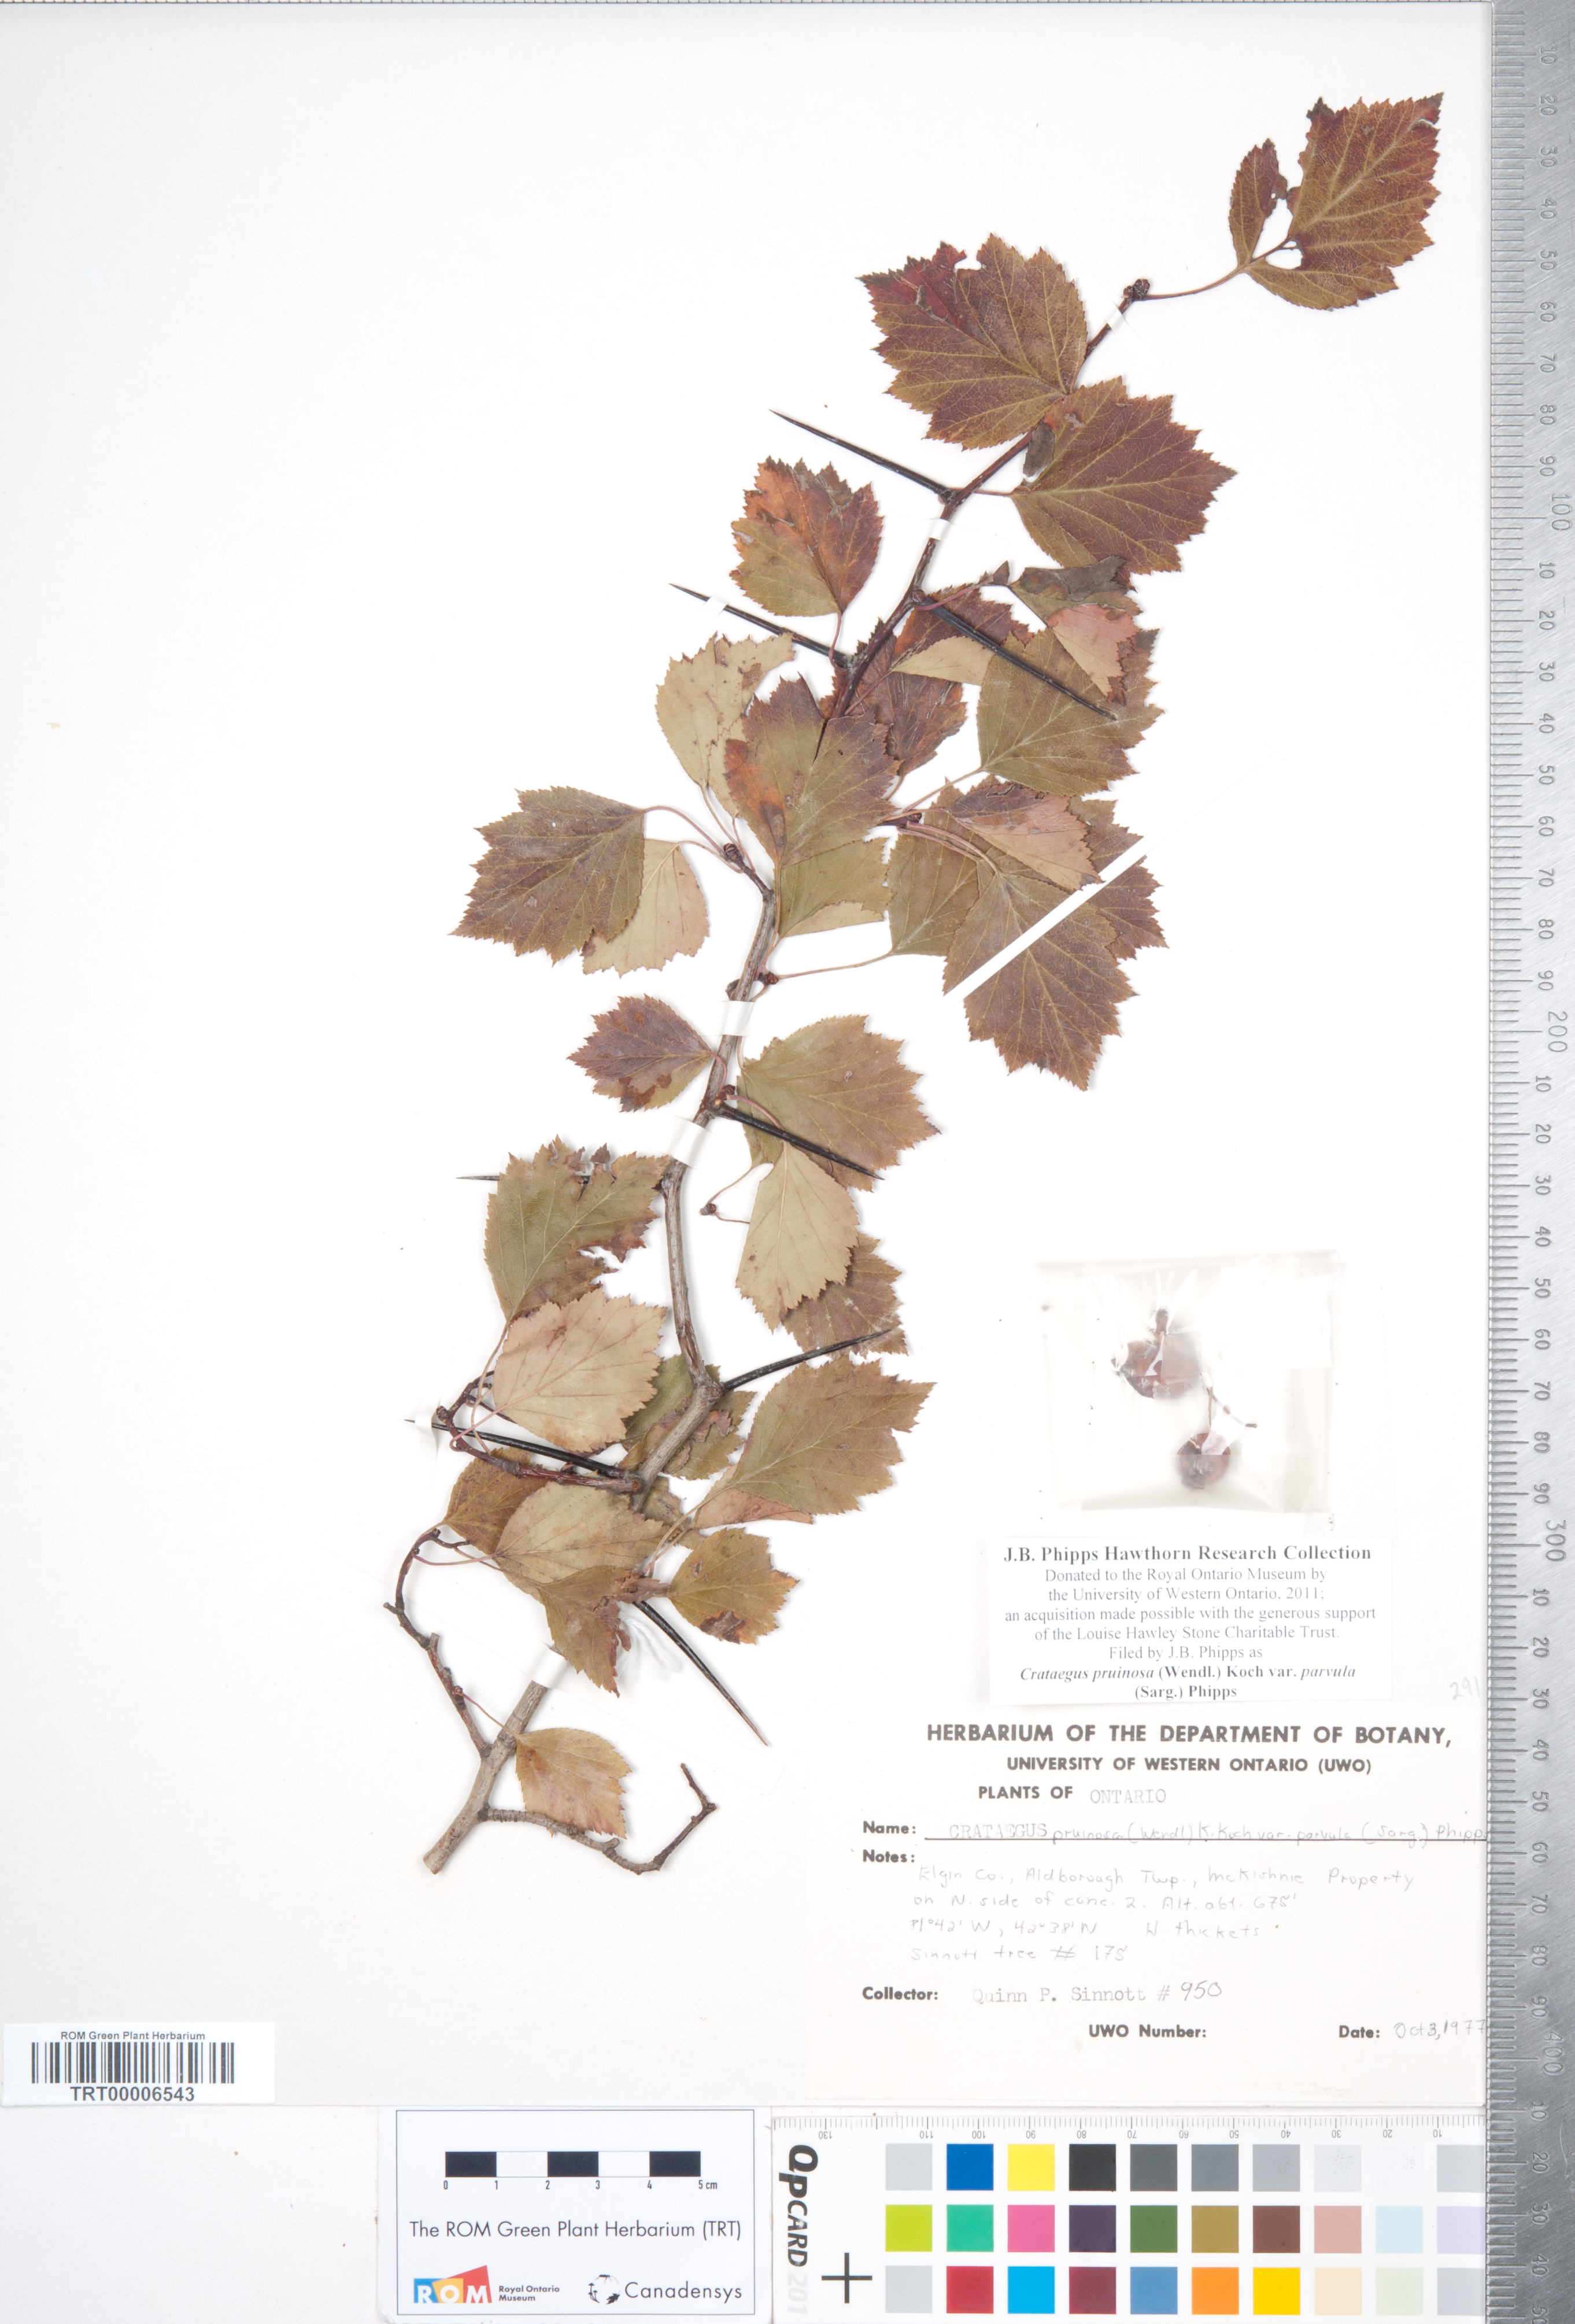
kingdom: Plantae
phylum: Tracheophyta
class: Magnoliopsida
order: Rosales
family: Rosaceae
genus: Crataegus
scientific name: Crataegus pruinosa
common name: Waxy-fruit hawthorn
